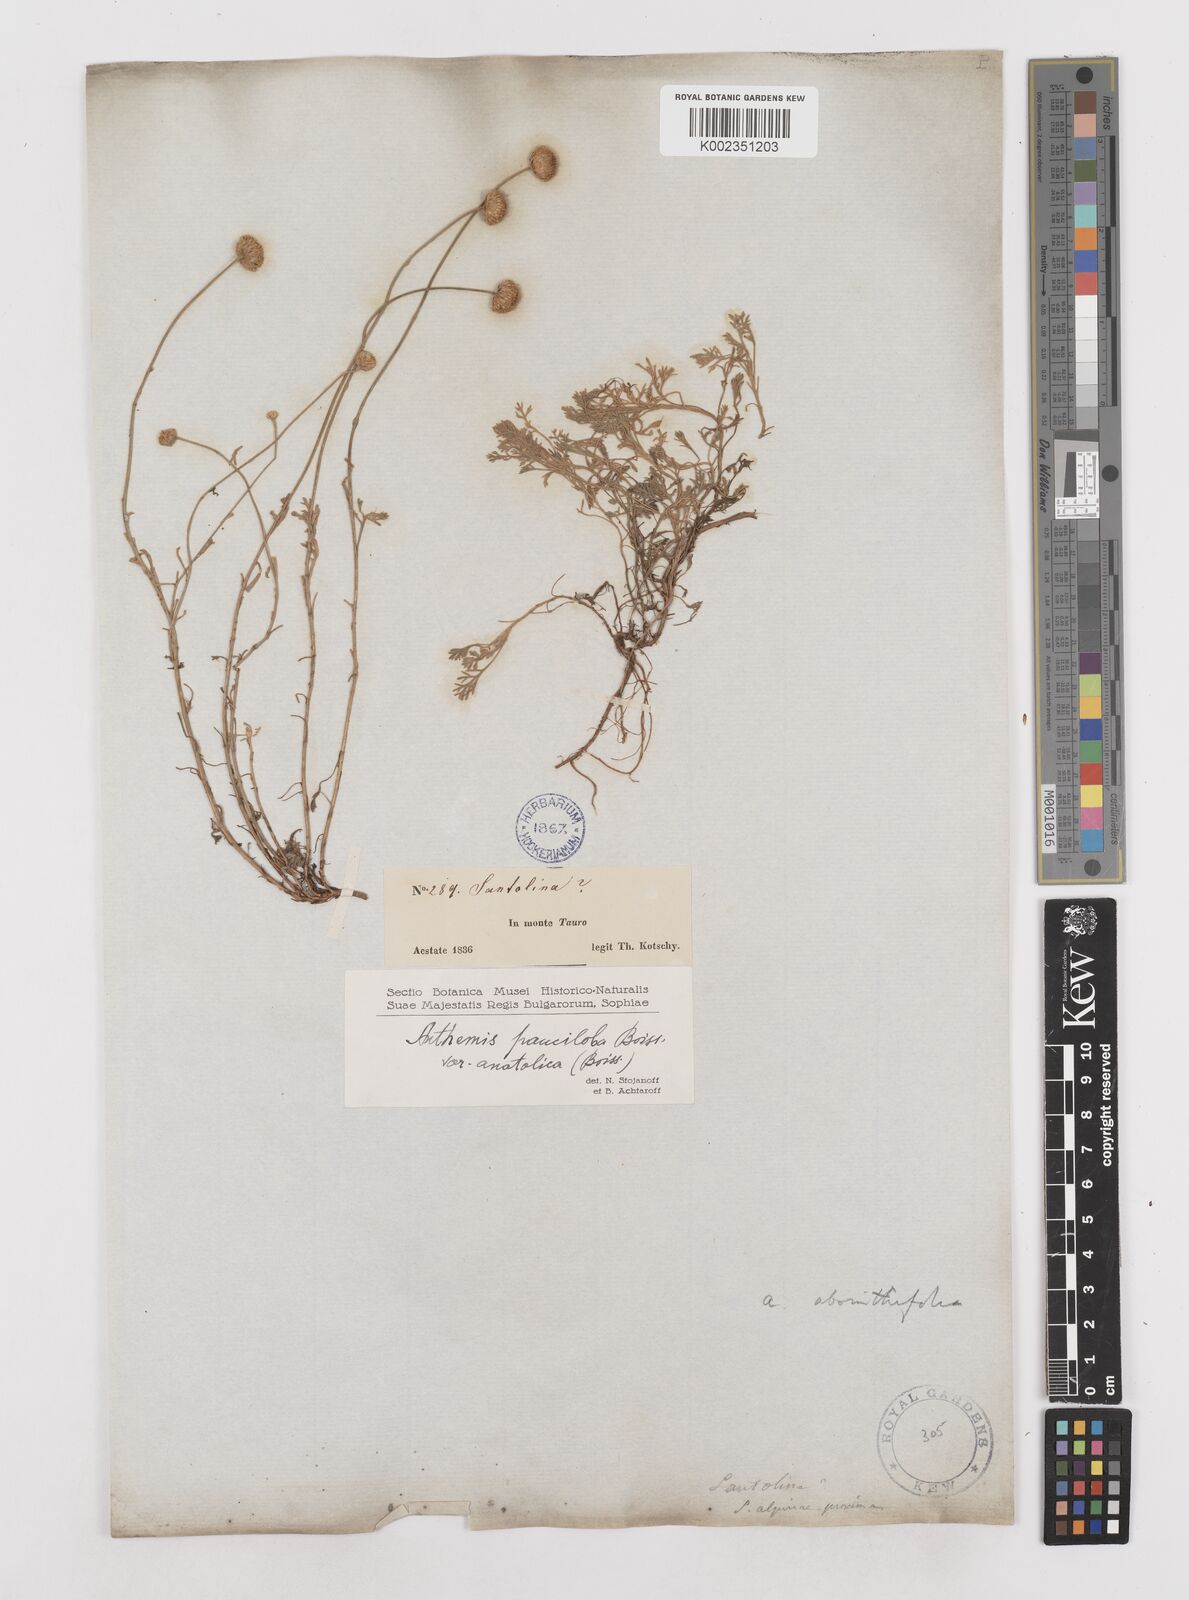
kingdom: Plantae
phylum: Tracheophyta
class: Magnoliopsida
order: Asterales
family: Asteraceae
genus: Anthemis
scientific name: Anthemis cretica
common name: Mountain dog-daisy
